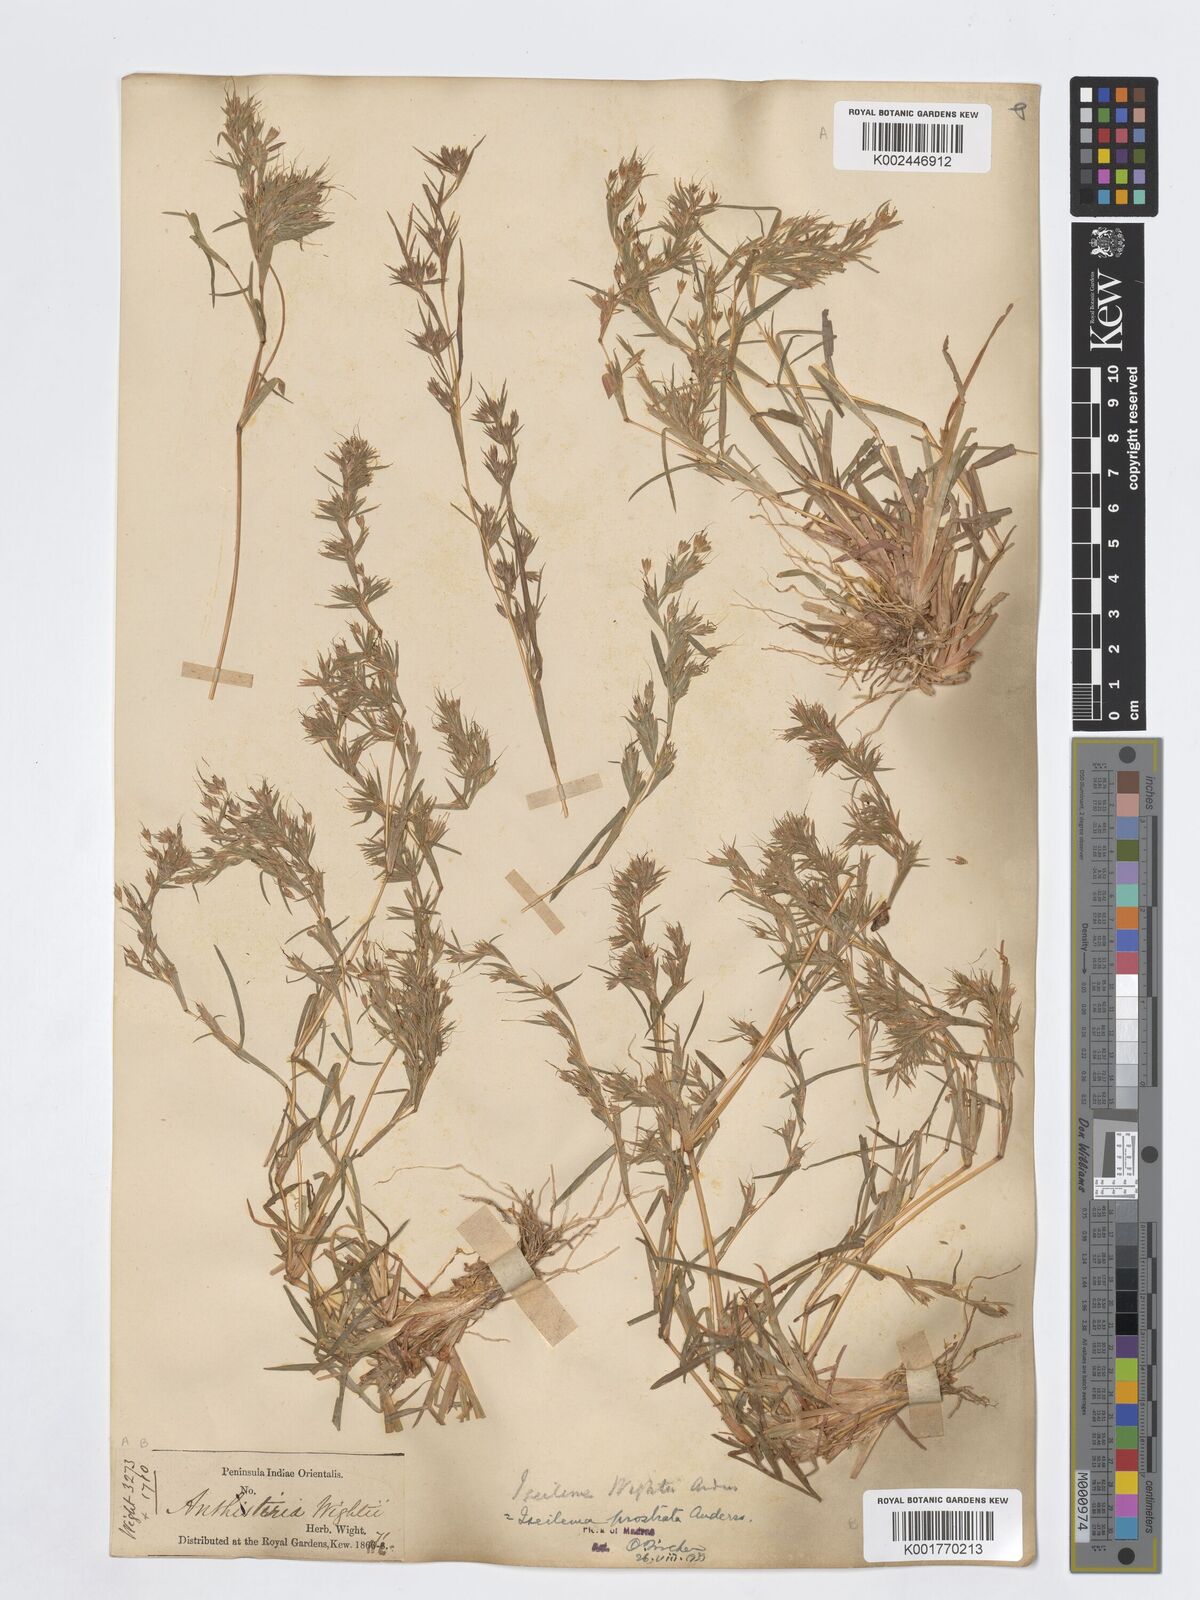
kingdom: Plantae
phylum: Tracheophyta
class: Liliopsida
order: Poales
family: Poaceae
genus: Iseilema
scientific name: Iseilema prostratum
